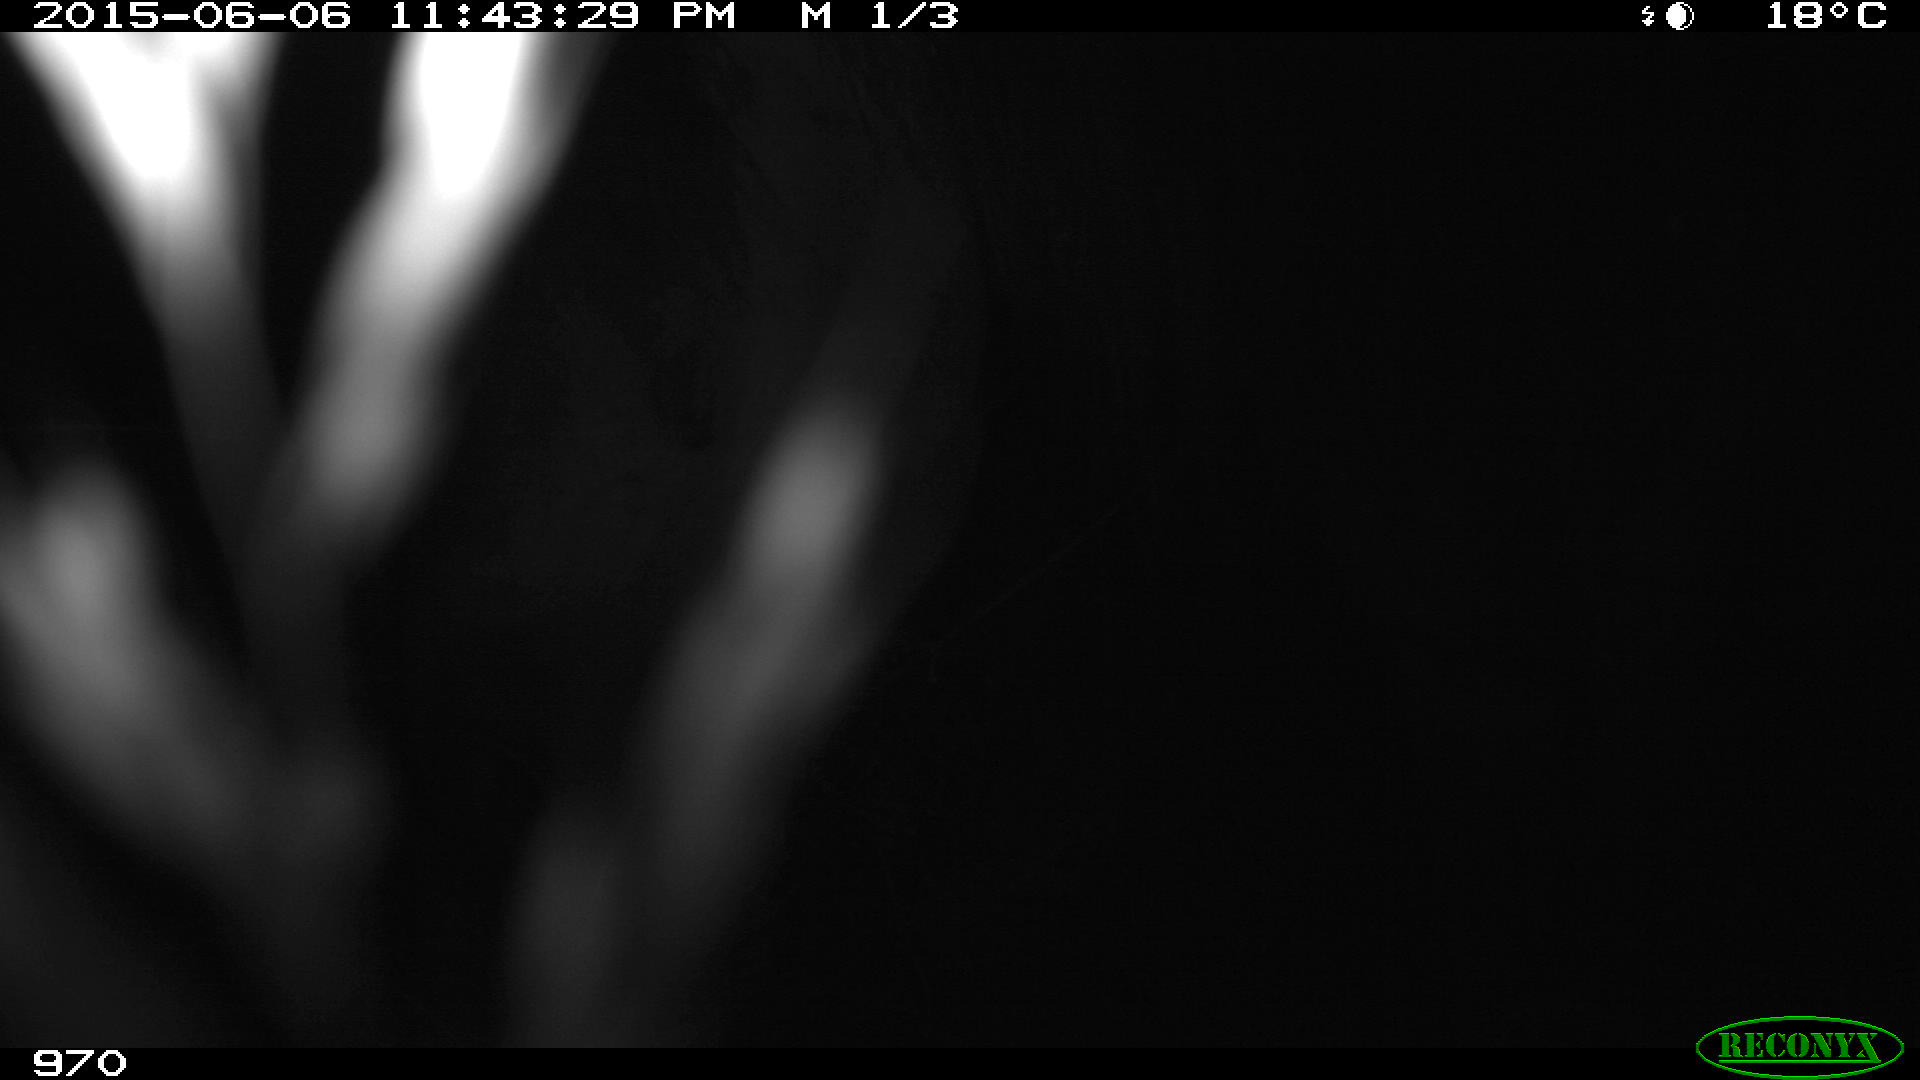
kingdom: Animalia
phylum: Chordata
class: Mammalia
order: Perissodactyla
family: Equidae
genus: Equus
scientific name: Equus caballus
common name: Horse
